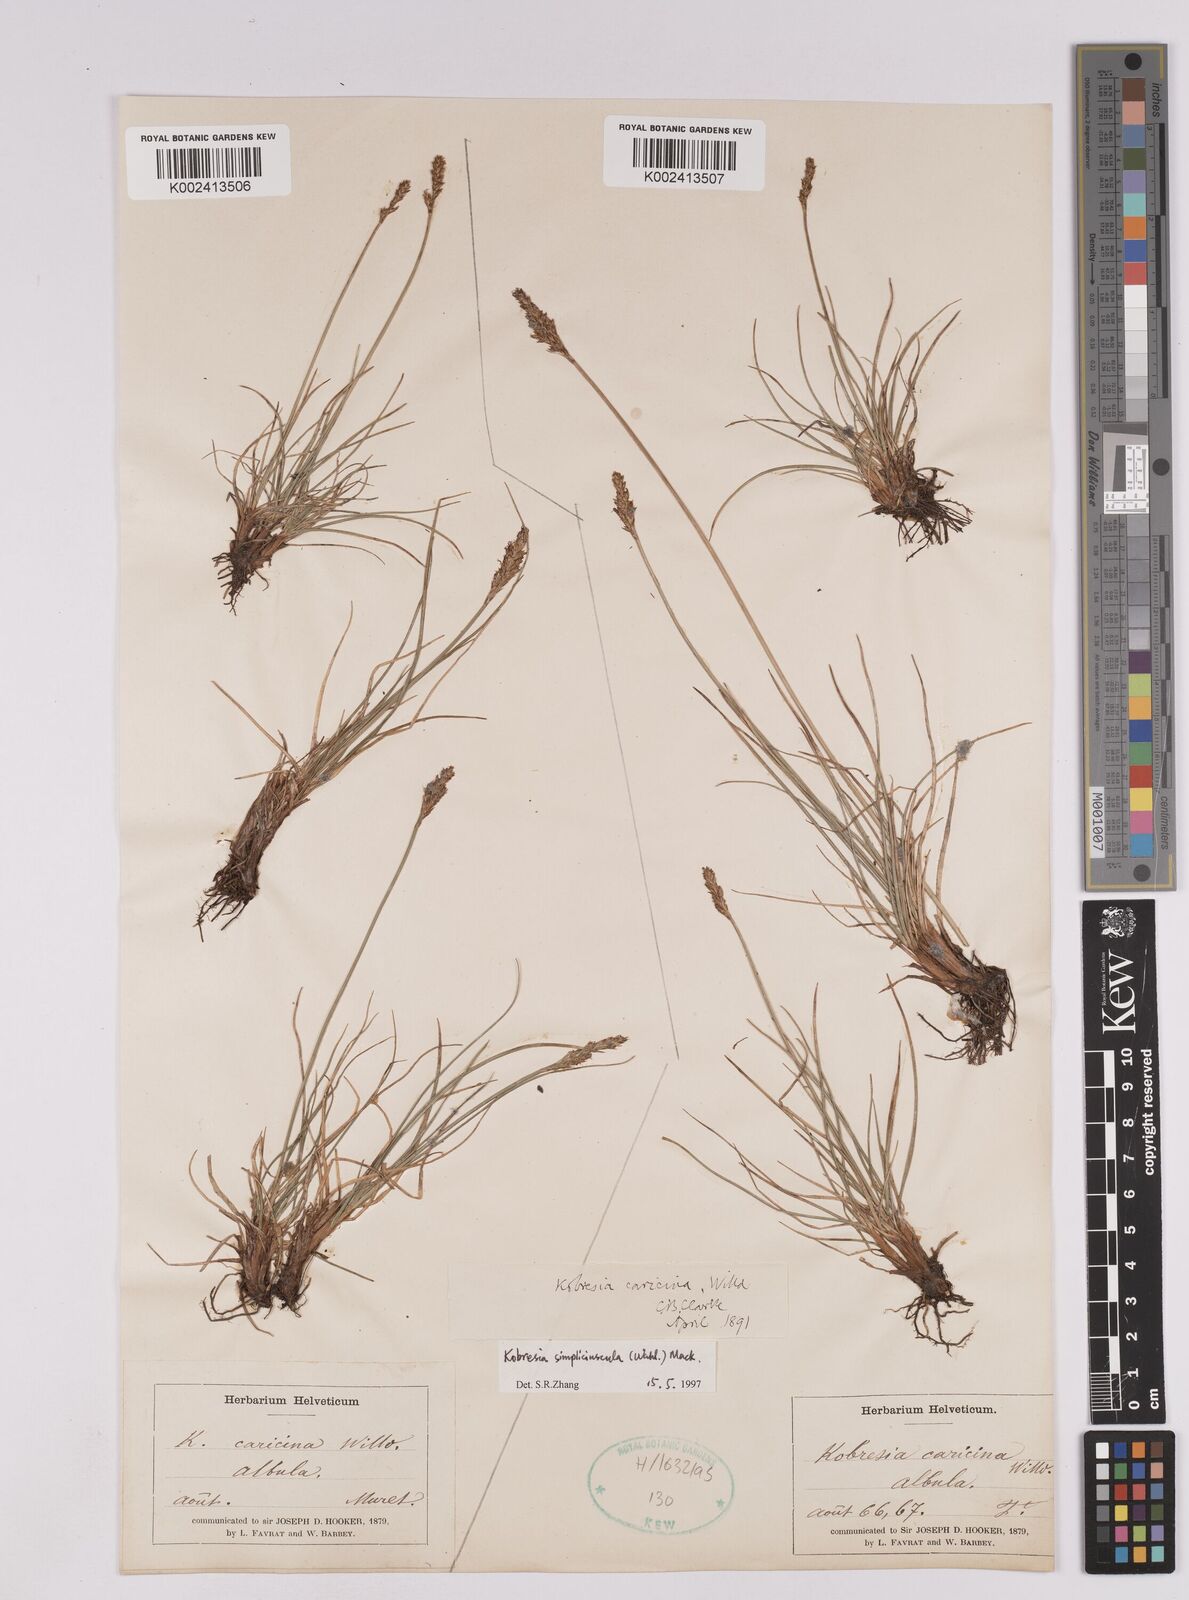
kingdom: Plantae
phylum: Tracheophyta
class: Liliopsida
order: Poales
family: Cyperaceae
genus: Carex
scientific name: Carex simpliciuscula
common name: Simple bog sedge
